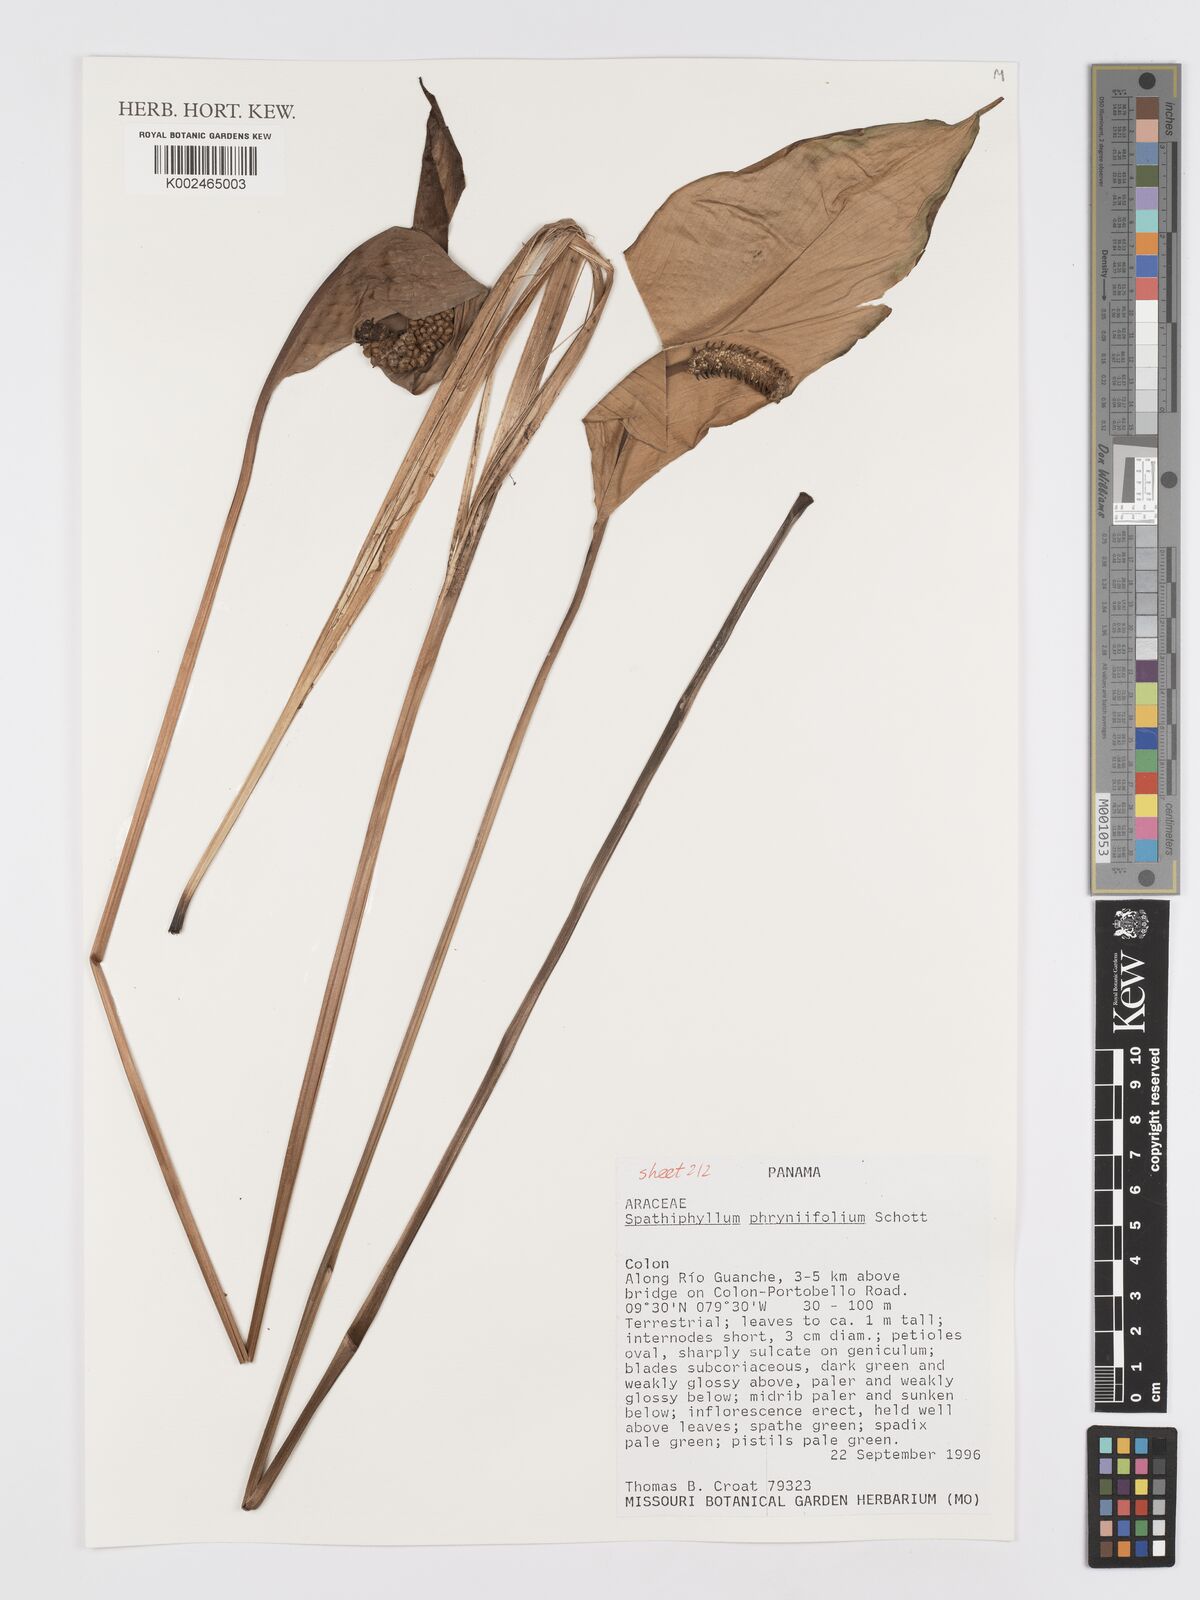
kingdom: Plantae
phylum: Tracheophyta
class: Liliopsida
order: Alismatales
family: Araceae
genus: Spathiphyllum
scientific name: Spathiphyllum phryniifolium
